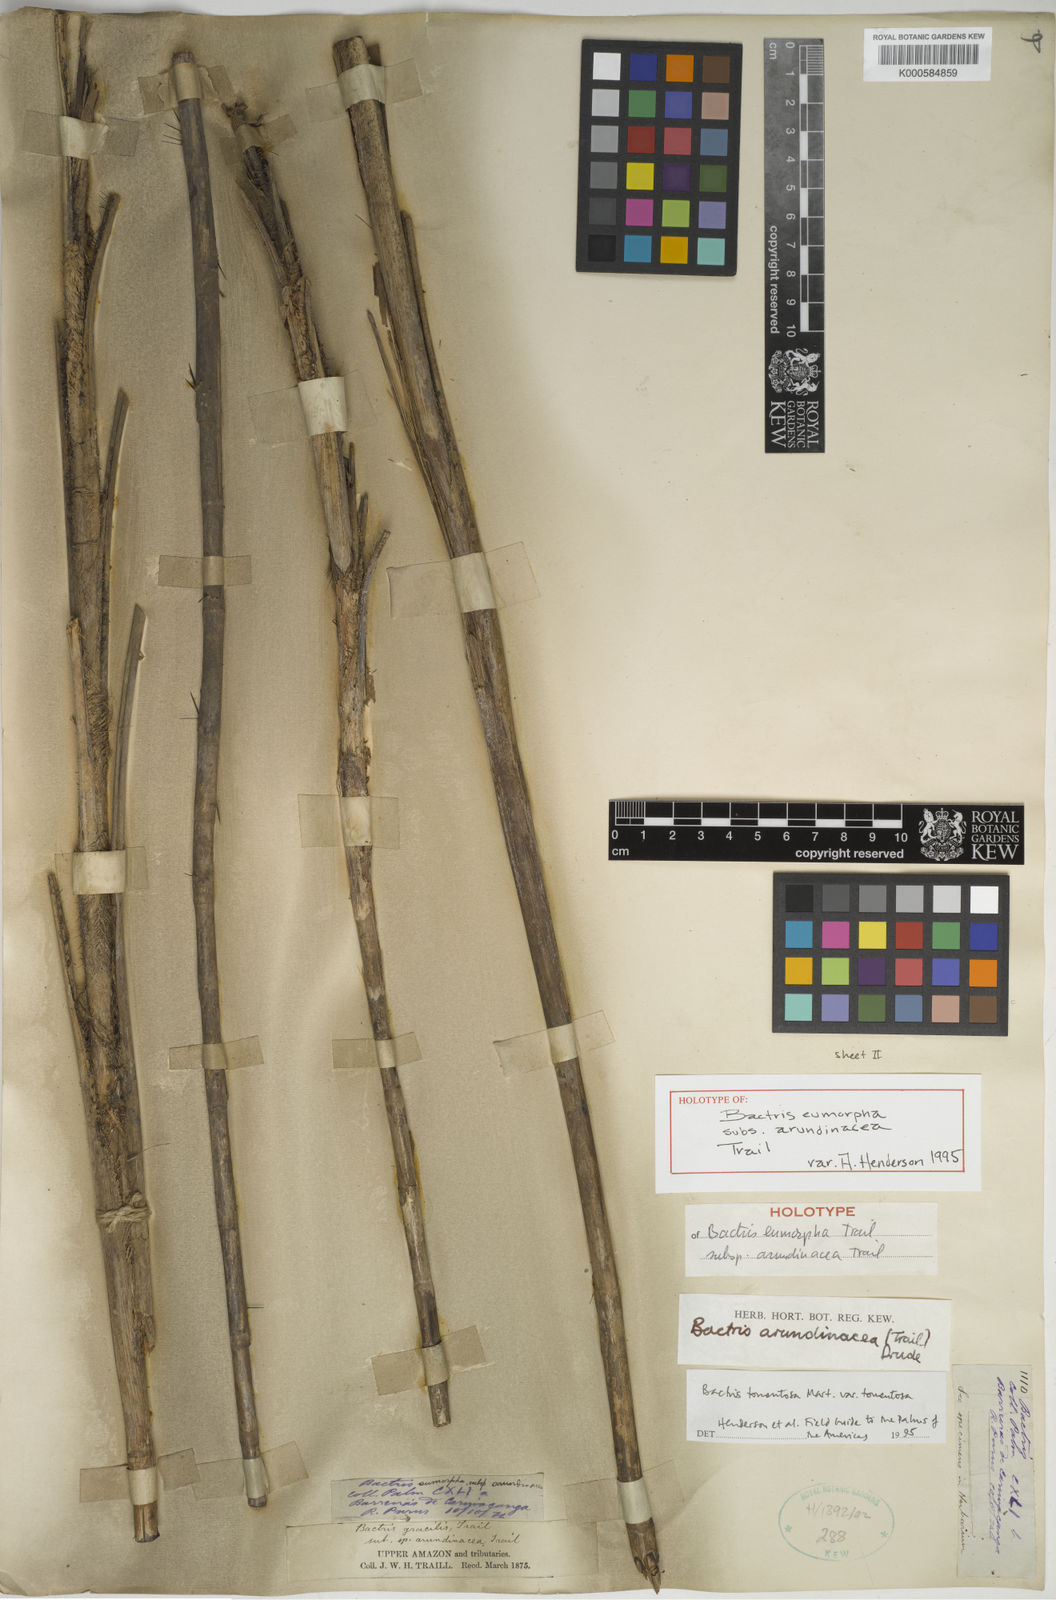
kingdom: Plantae
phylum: Tracheophyta
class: Liliopsida
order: Arecales
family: Arecaceae
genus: Bactris
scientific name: Bactris tomentosa
